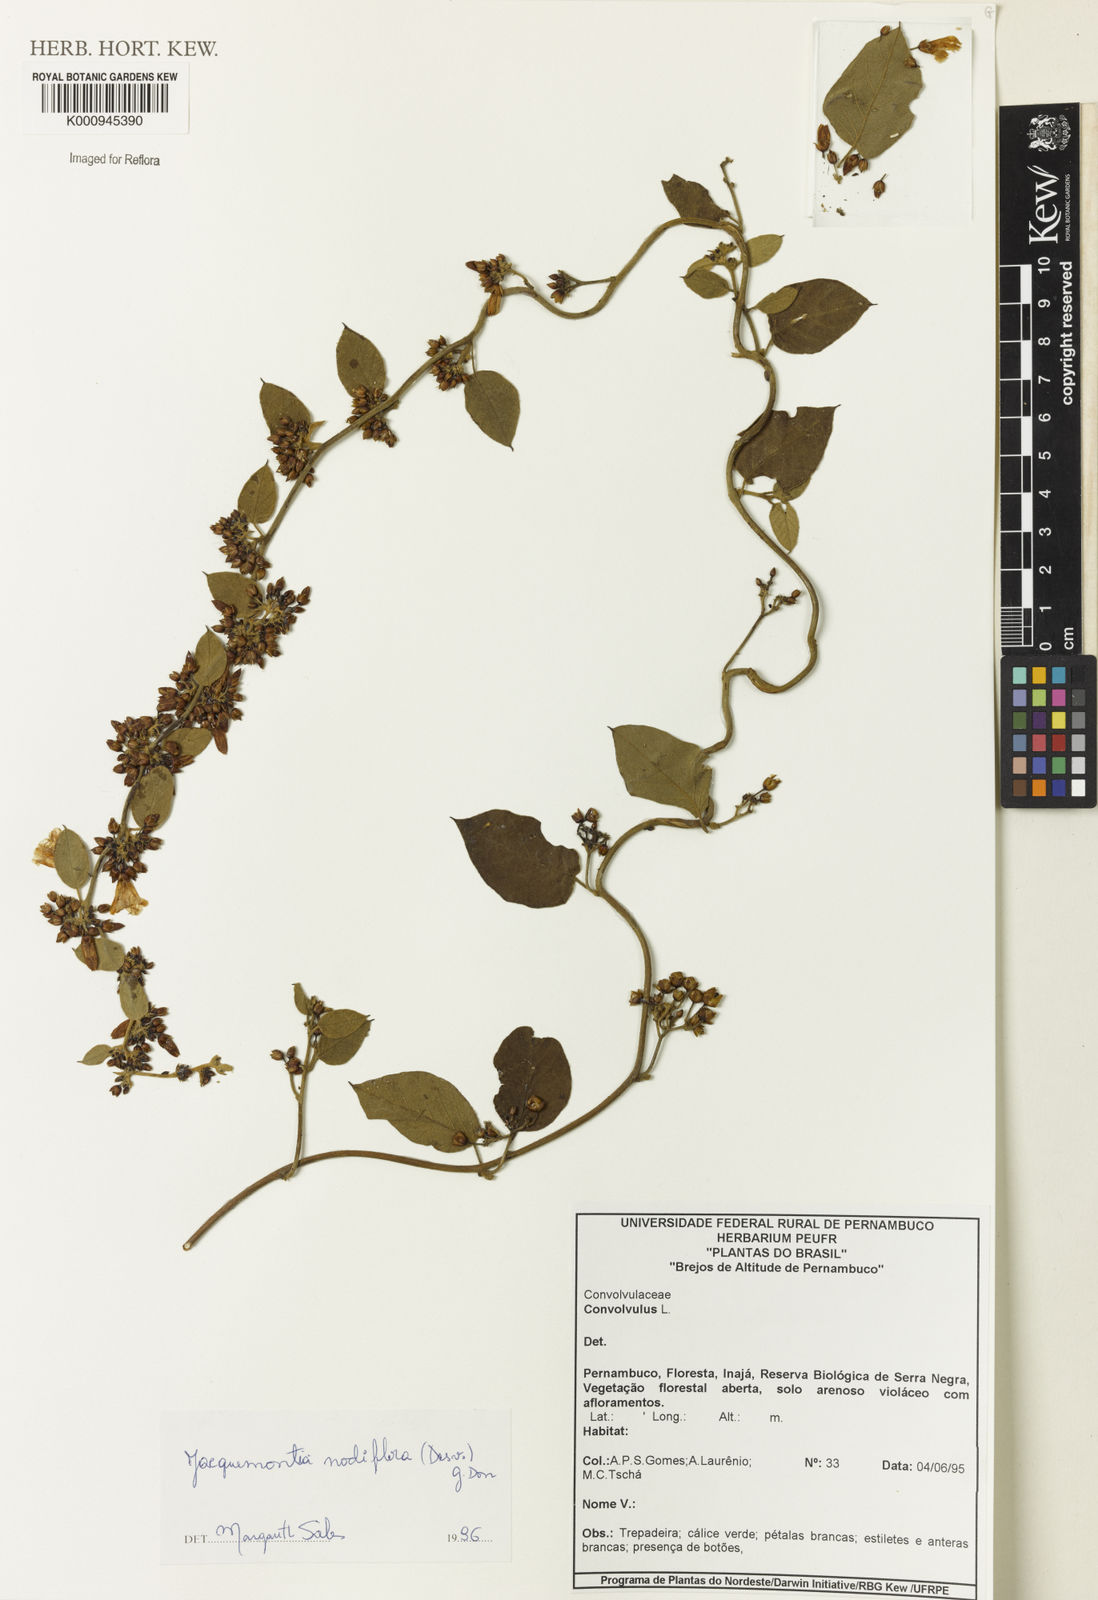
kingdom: Plantae
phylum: Tracheophyta
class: Magnoliopsida
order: Solanales
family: Convolvulaceae
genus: Jacquemontia
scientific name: Jacquemontia nodiflora
